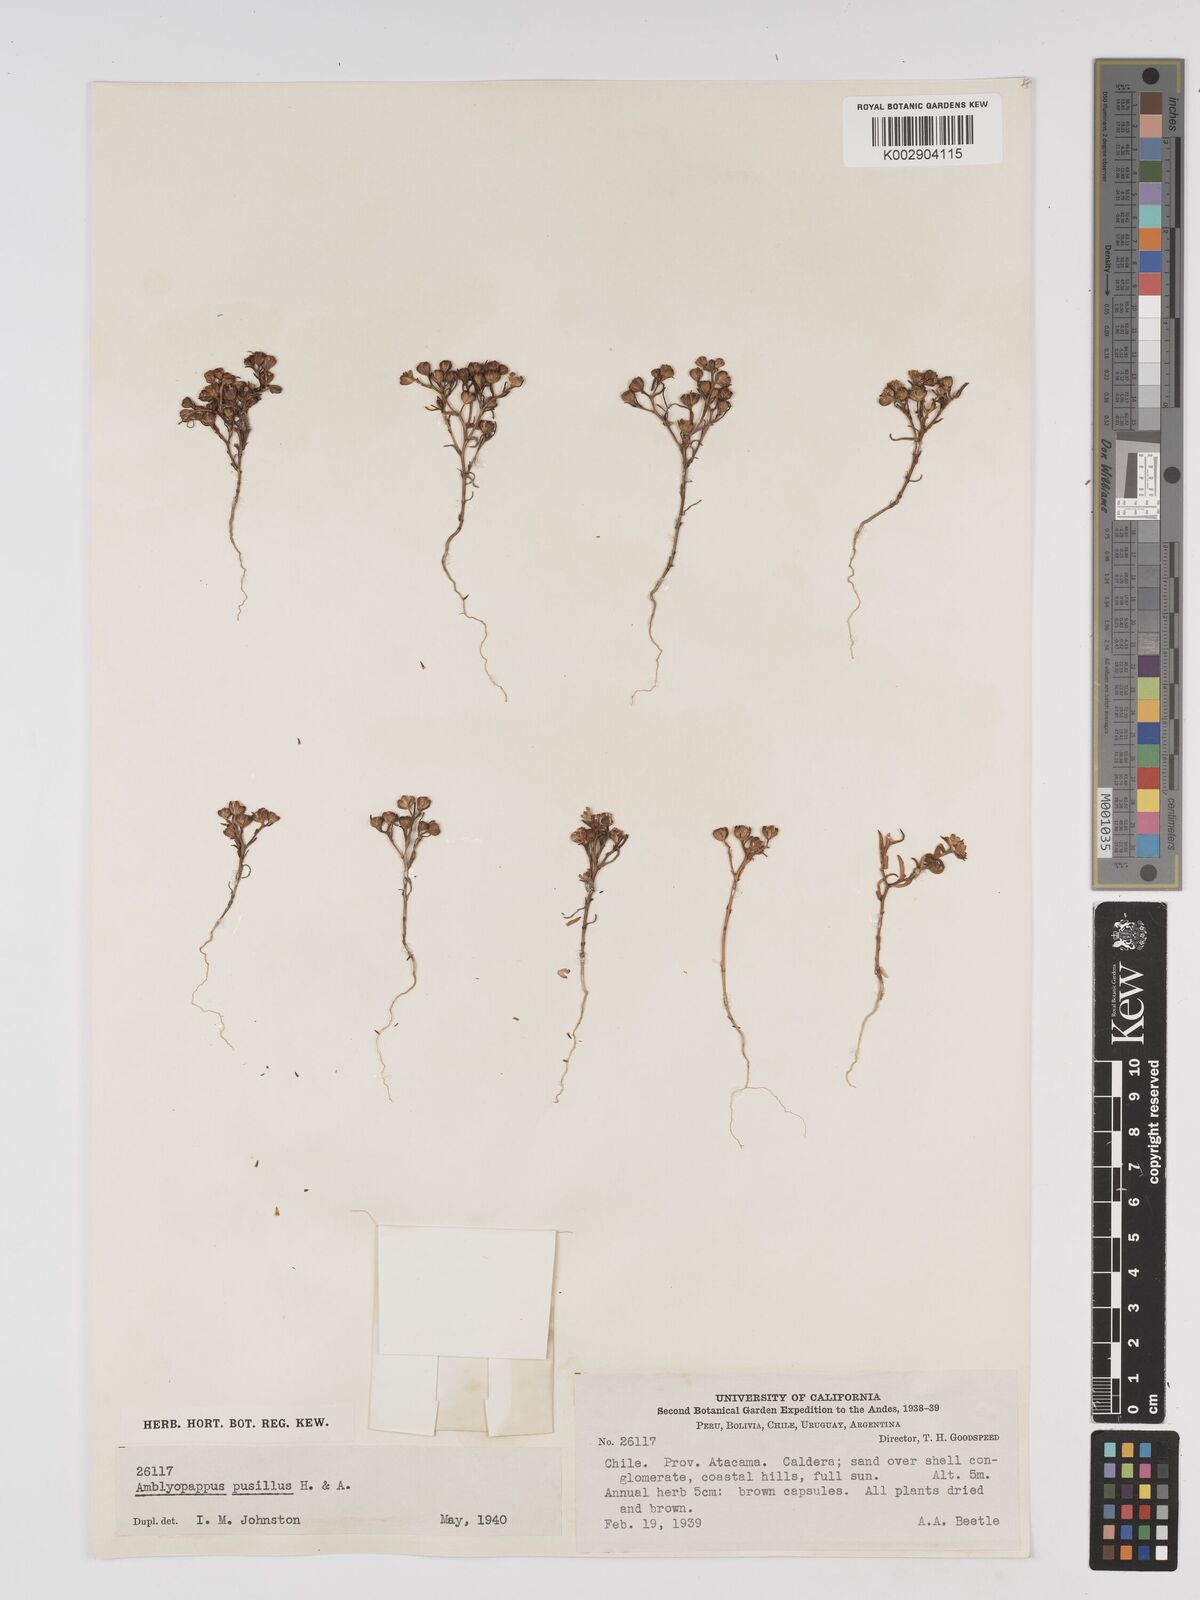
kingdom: Plantae
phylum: Tracheophyta
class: Magnoliopsida
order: Asterales
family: Asteraceae
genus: Amblyopappus
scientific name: Amblyopappus pusillus
